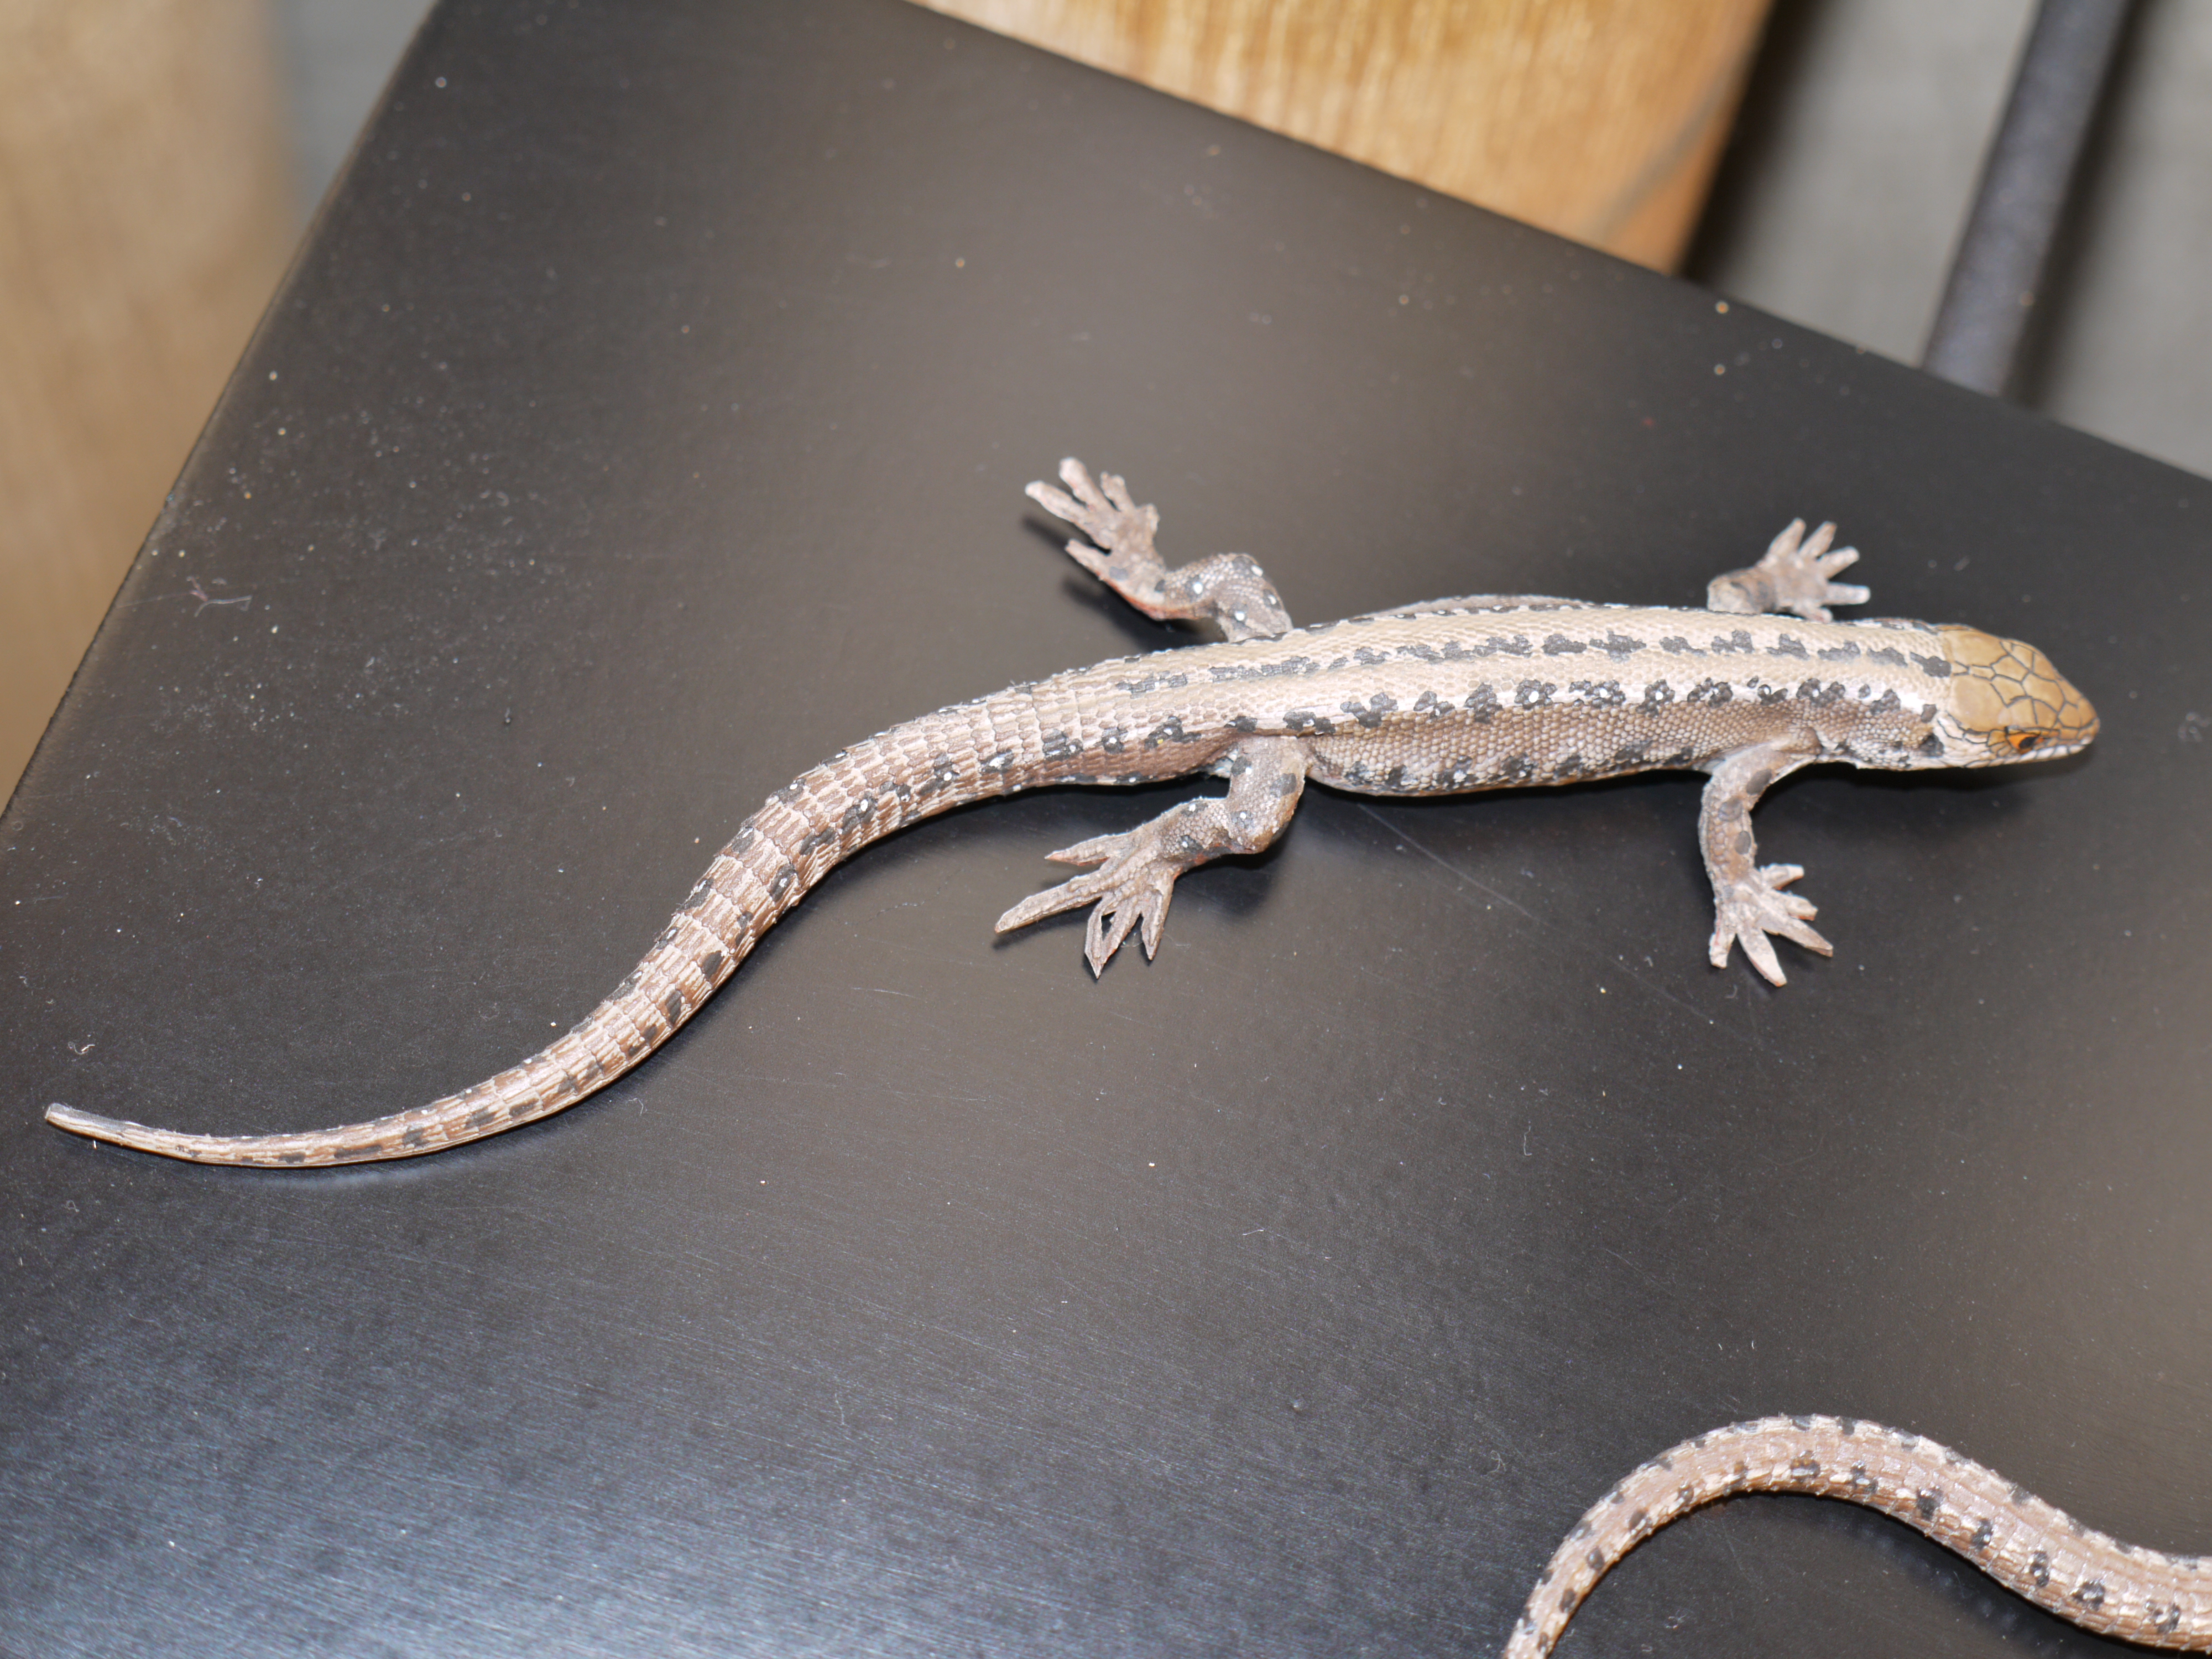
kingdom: Animalia
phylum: Chordata
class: Squamata
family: Lacertidae
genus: Zootoca
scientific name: Zootoca vivipara
